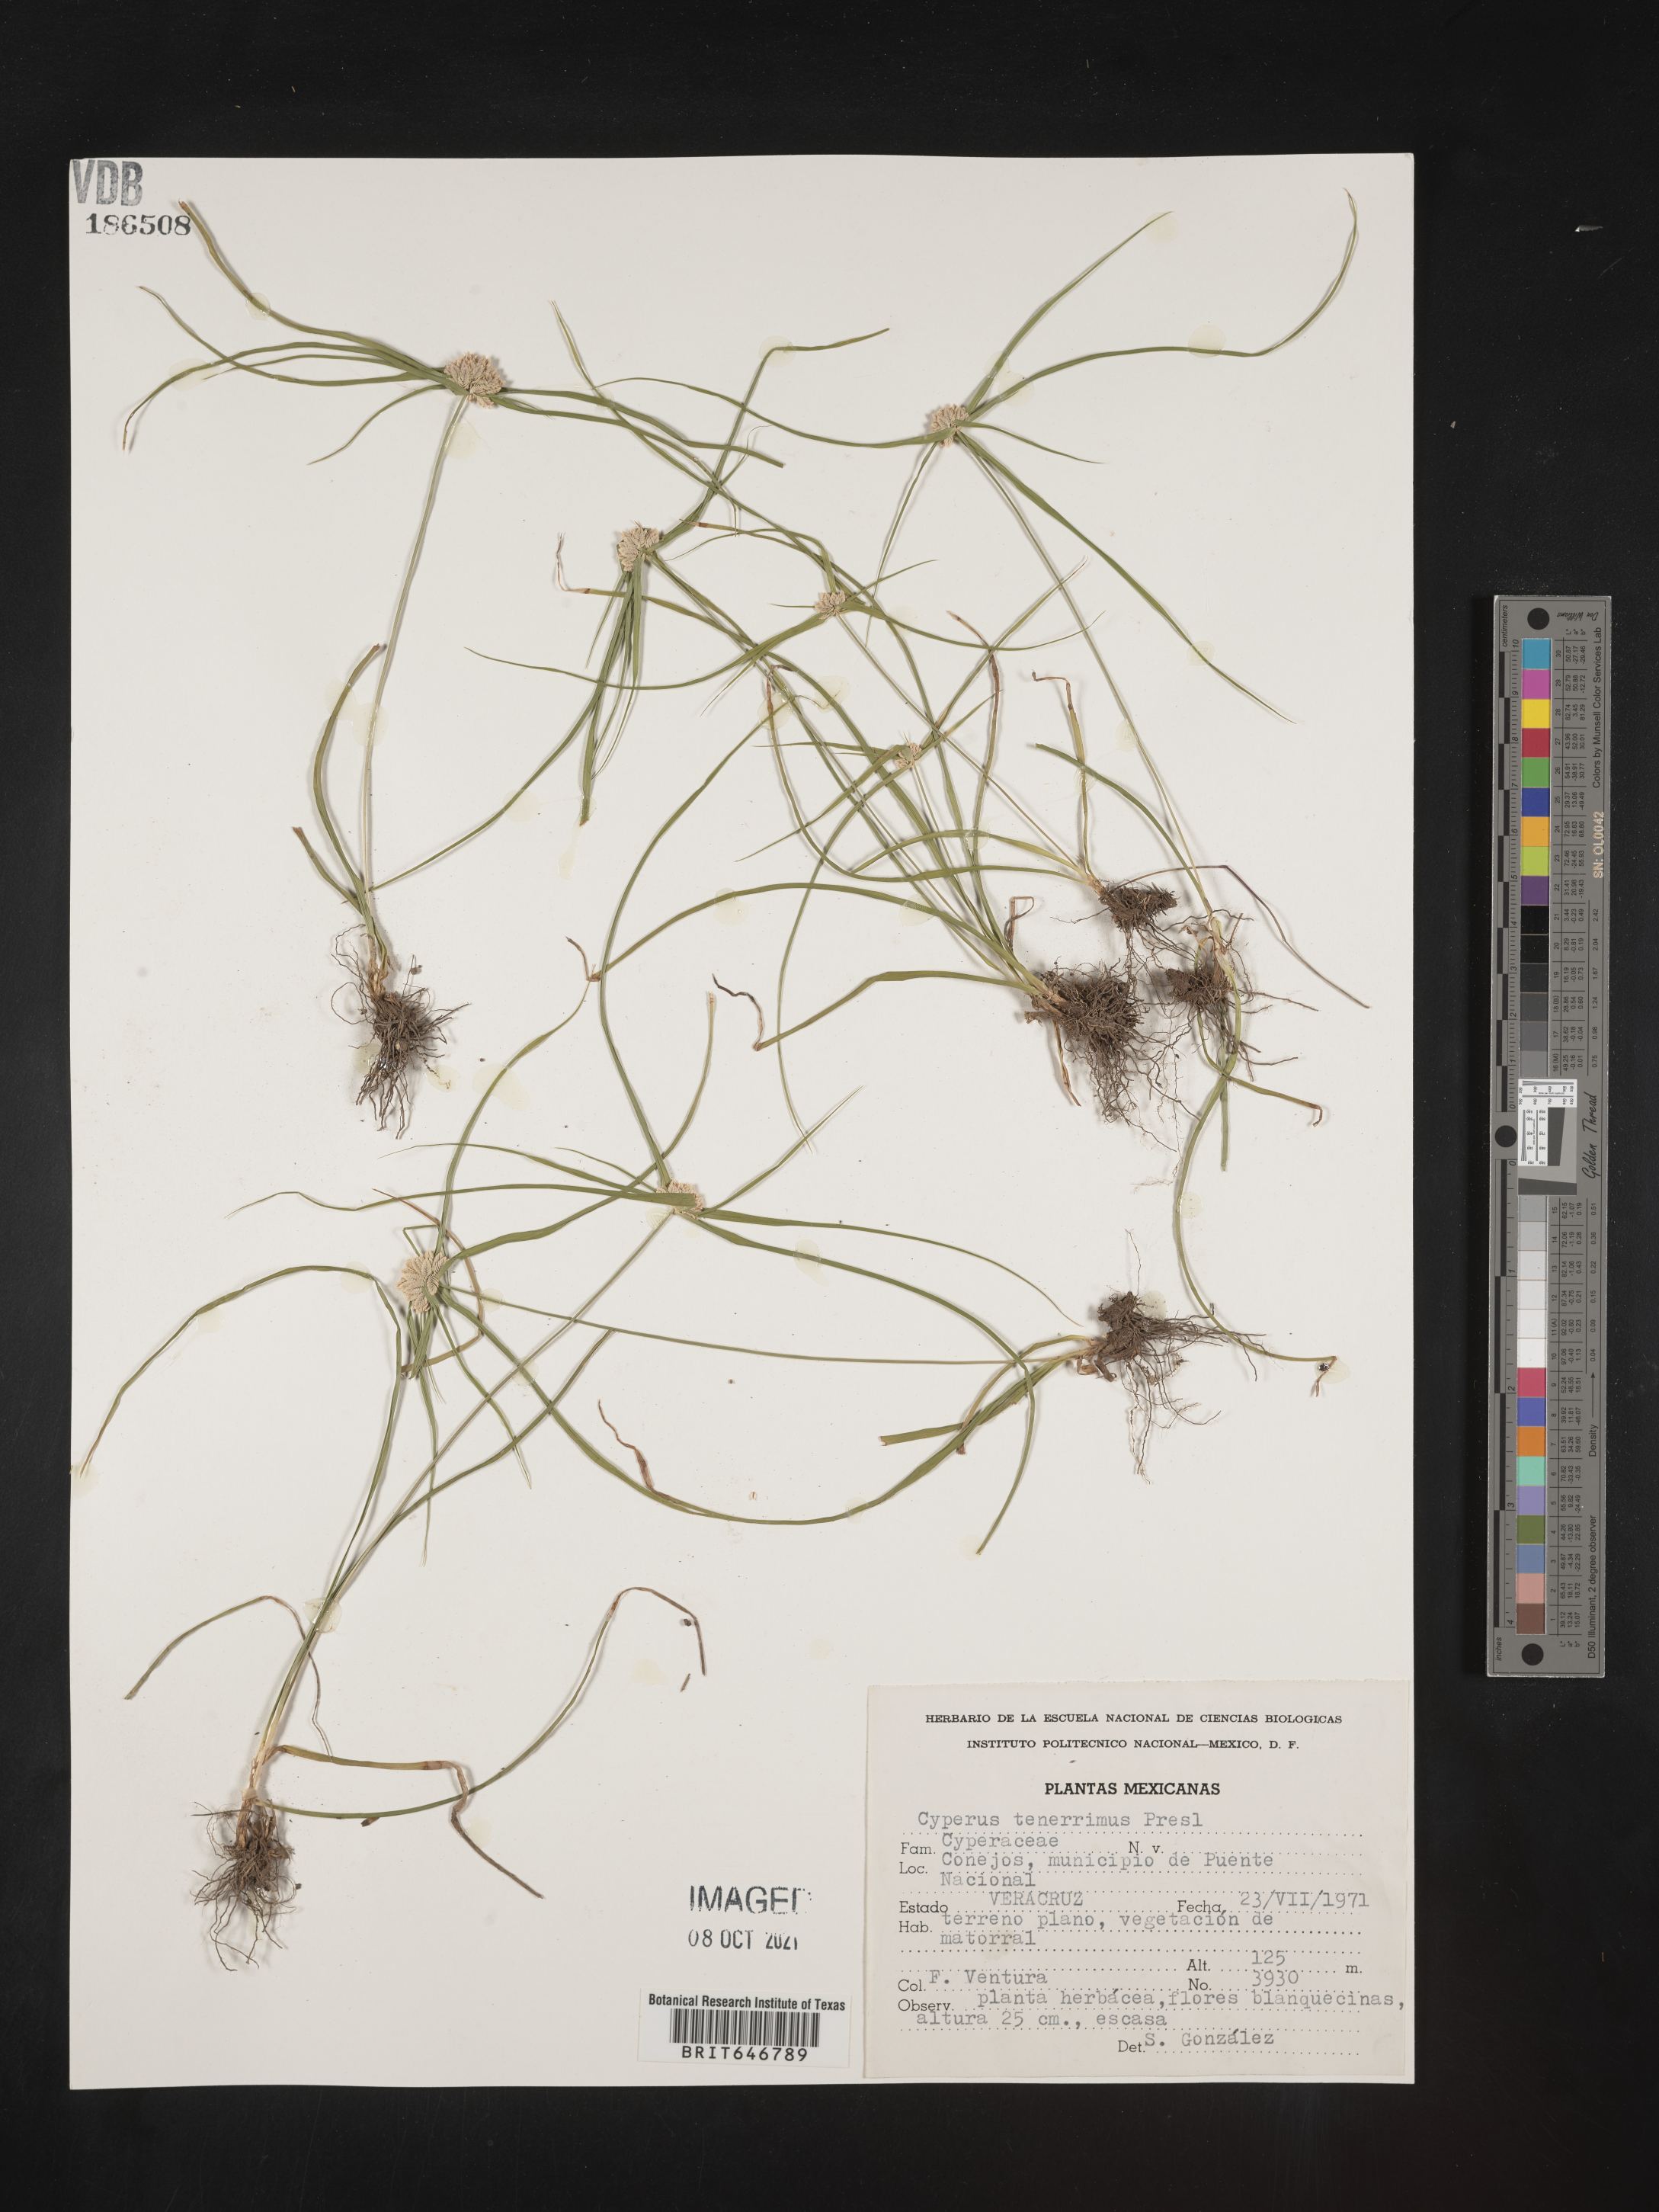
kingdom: Plantae
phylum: Tracheophyta
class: Liliopsida
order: Poales
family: Cyperaceae
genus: Cyperus
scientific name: Cyperus
